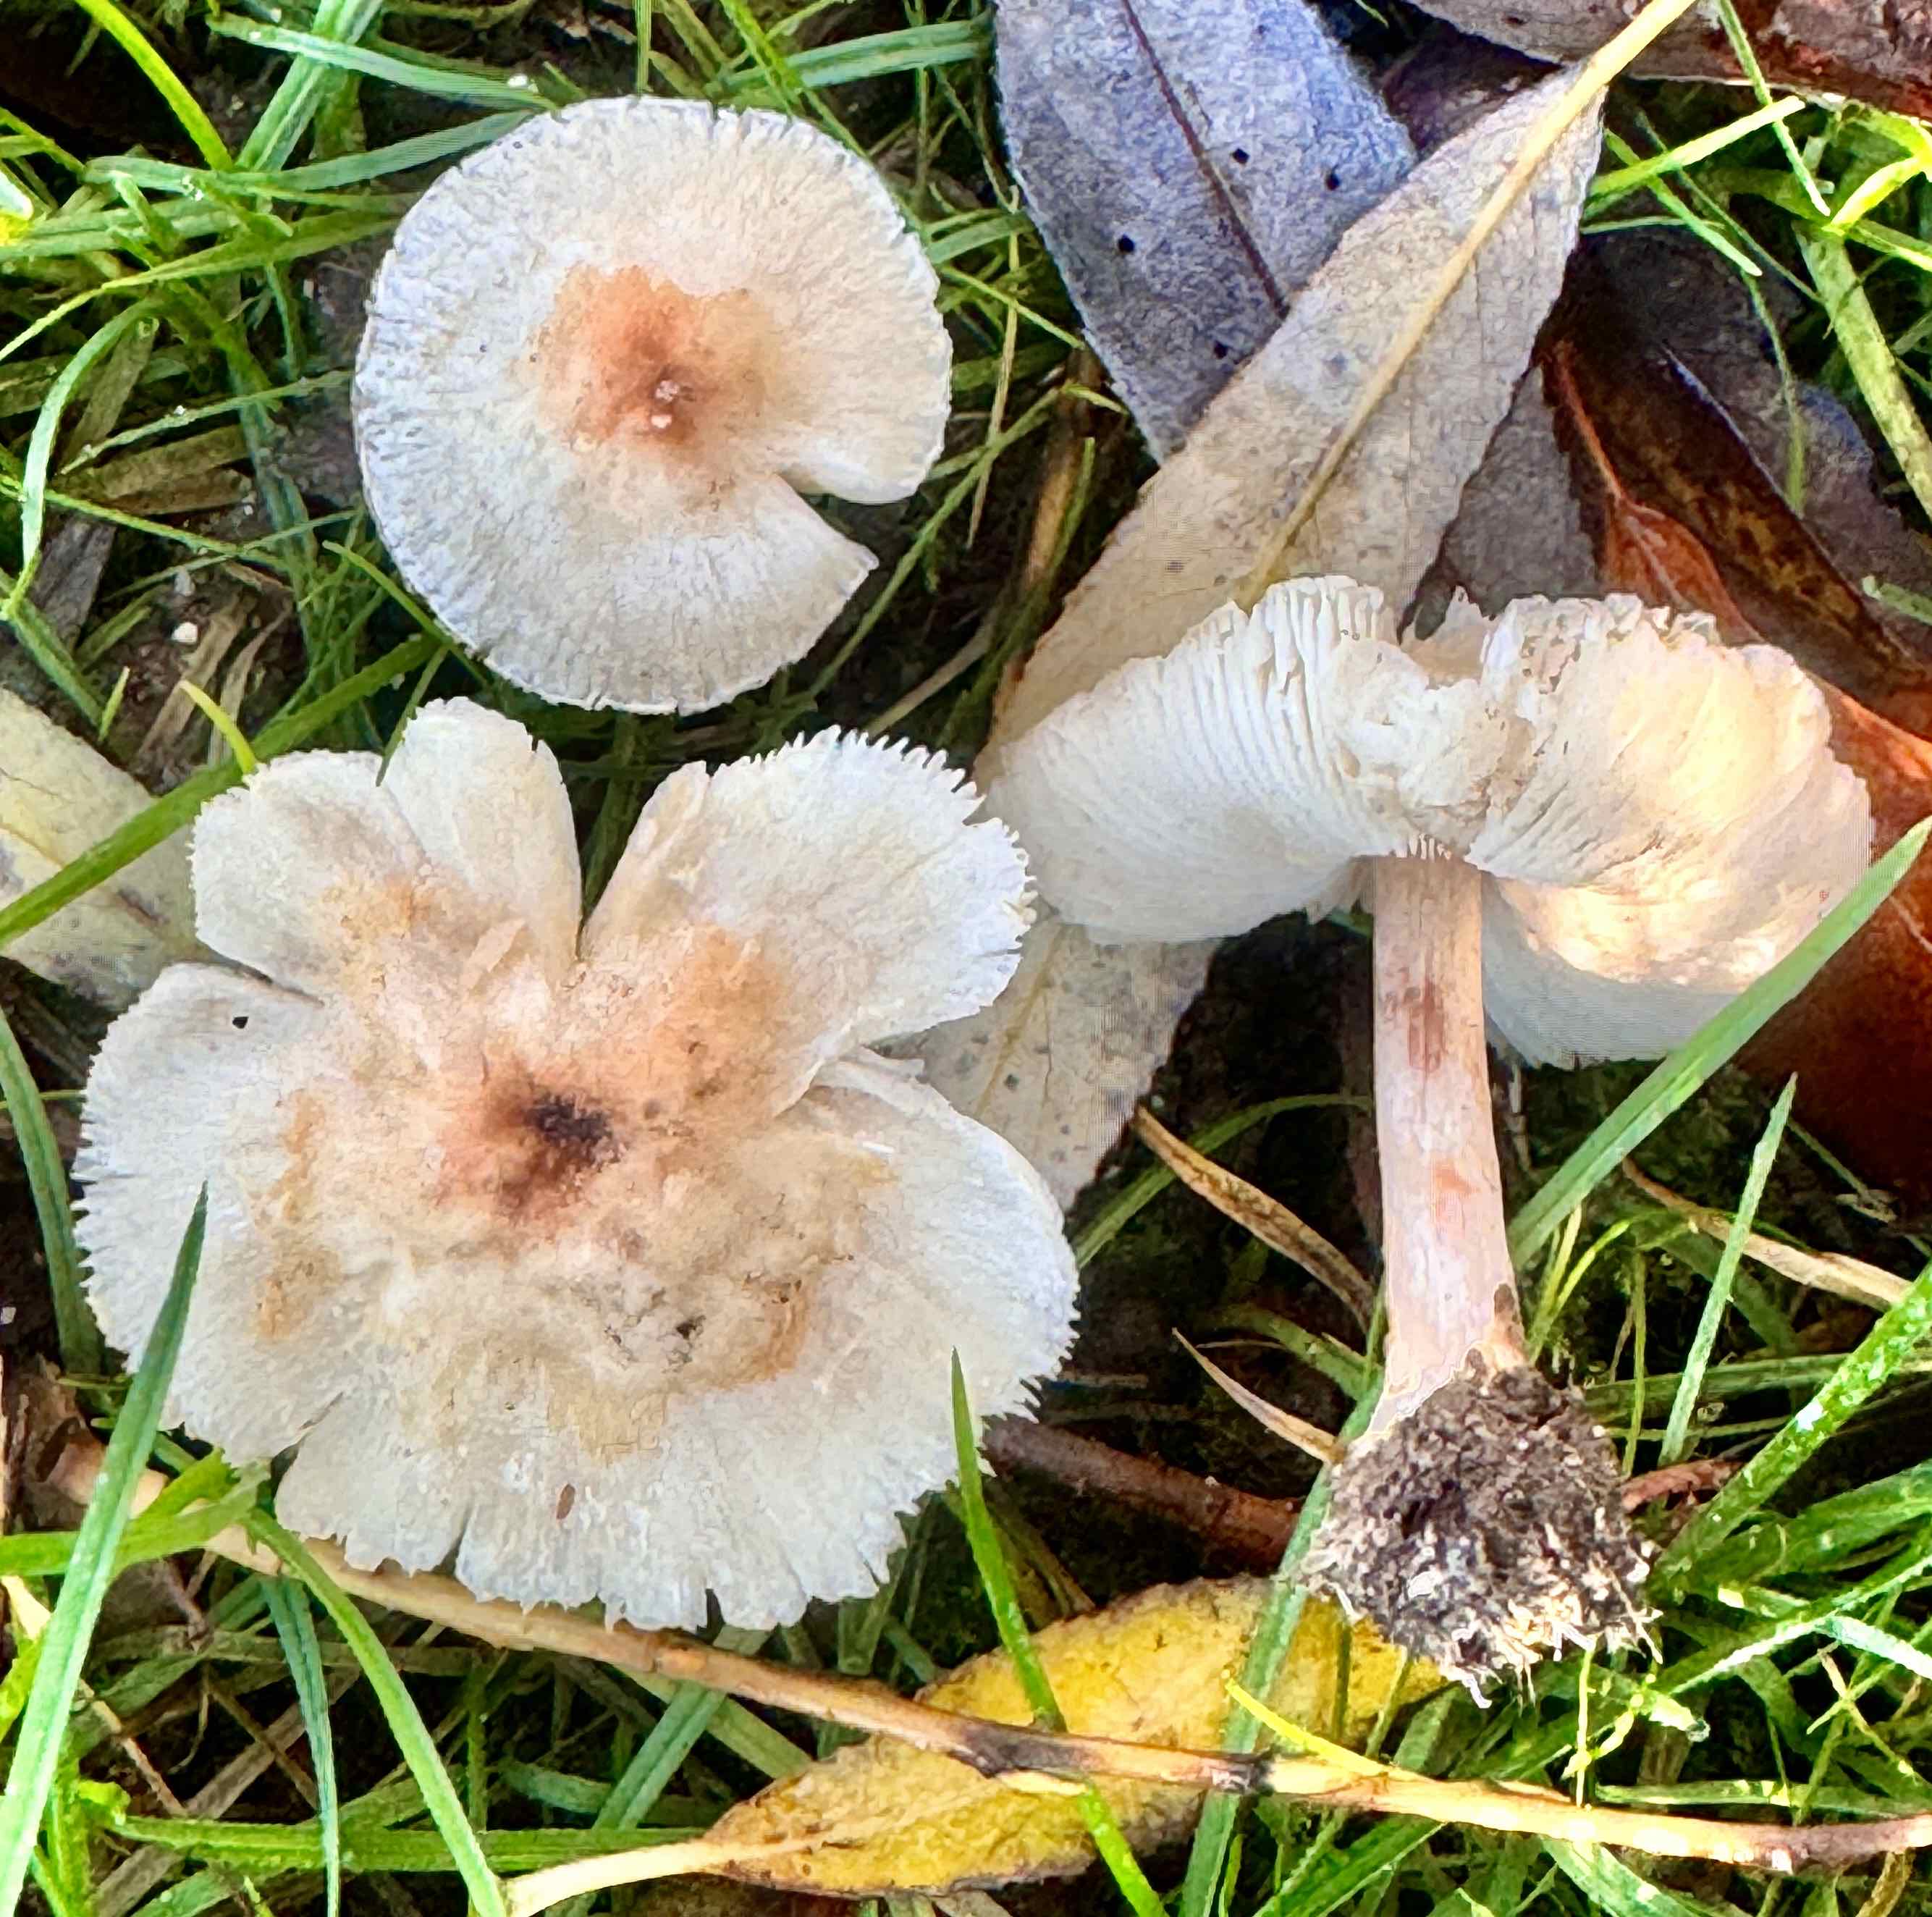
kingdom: Fungi
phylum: Basidiomycota
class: Agaricomycetes
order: Agaricales
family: Agaricaceae
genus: Lepiota
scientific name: Lepiota cristata
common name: stinkende parasolhat
